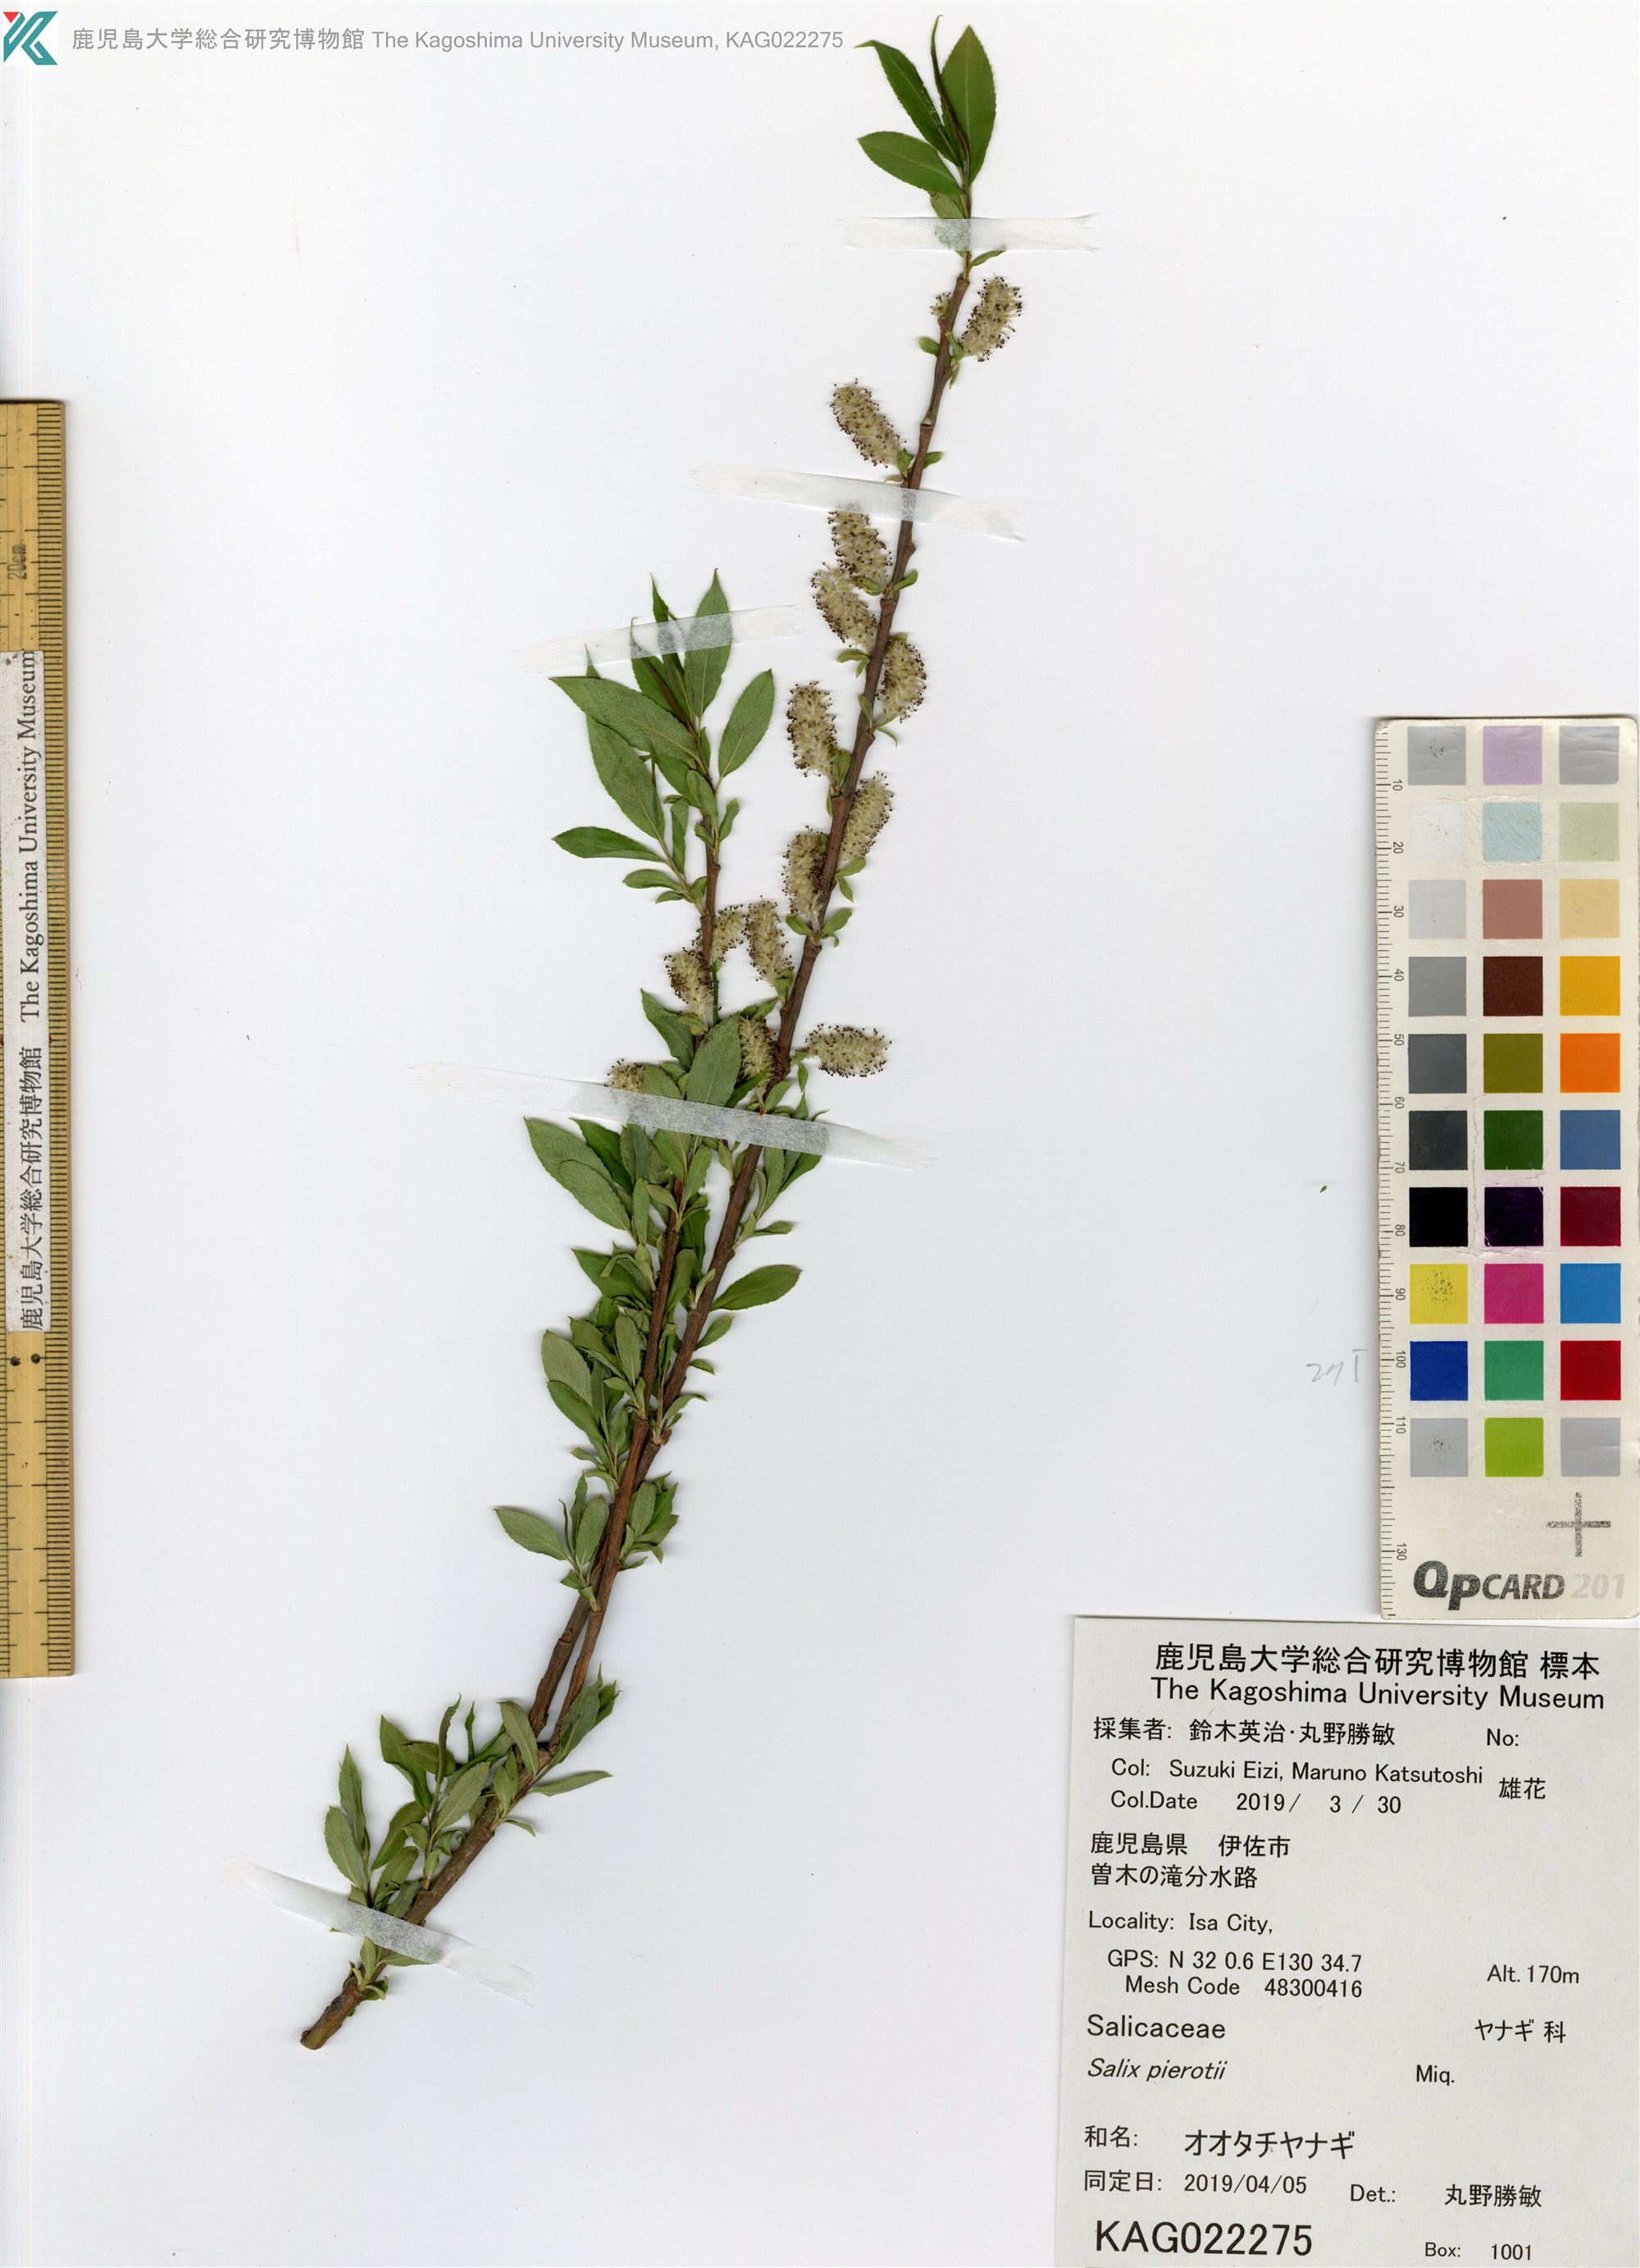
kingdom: Plantae
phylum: Tracheophyta
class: Magnoliopsida
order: Malpighiales
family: Salicaceae
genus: Salix
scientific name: Salix pierotii
